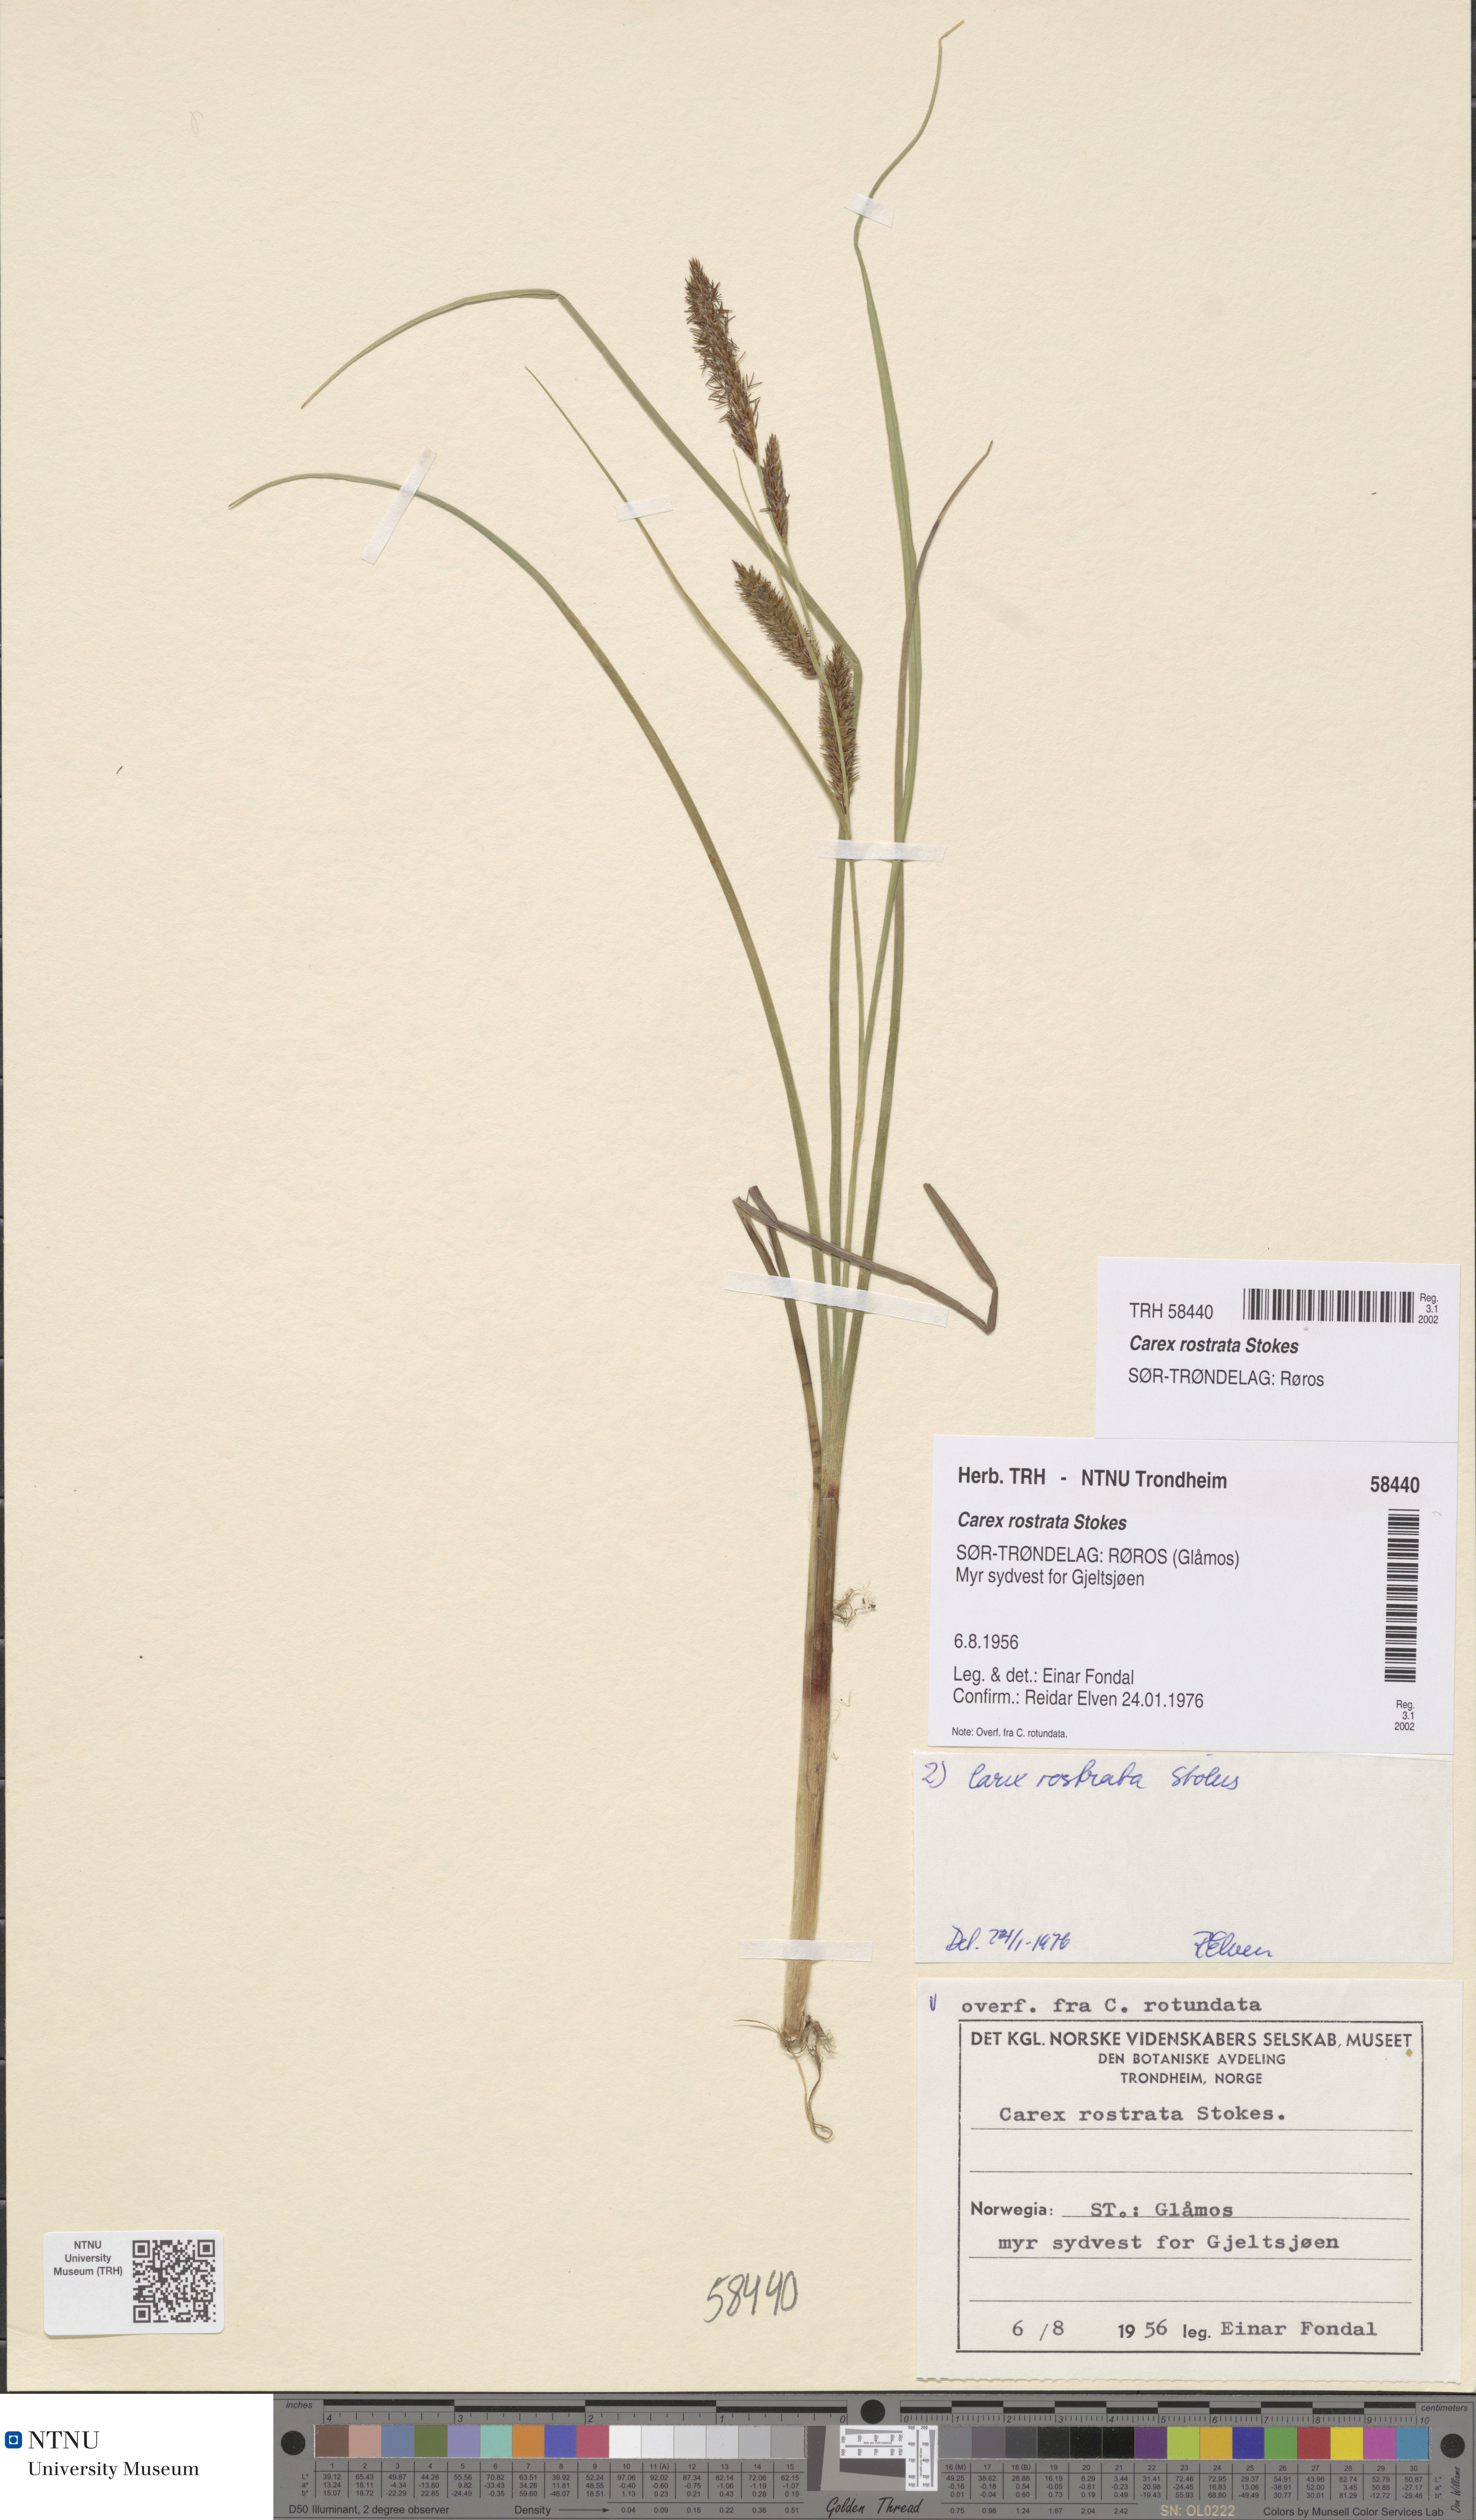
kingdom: Plantae
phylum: Tracheophyta
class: Liliopsida
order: Poales
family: Cyperaceae
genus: Carex
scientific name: Carex rostrata
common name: Bottle sedge
